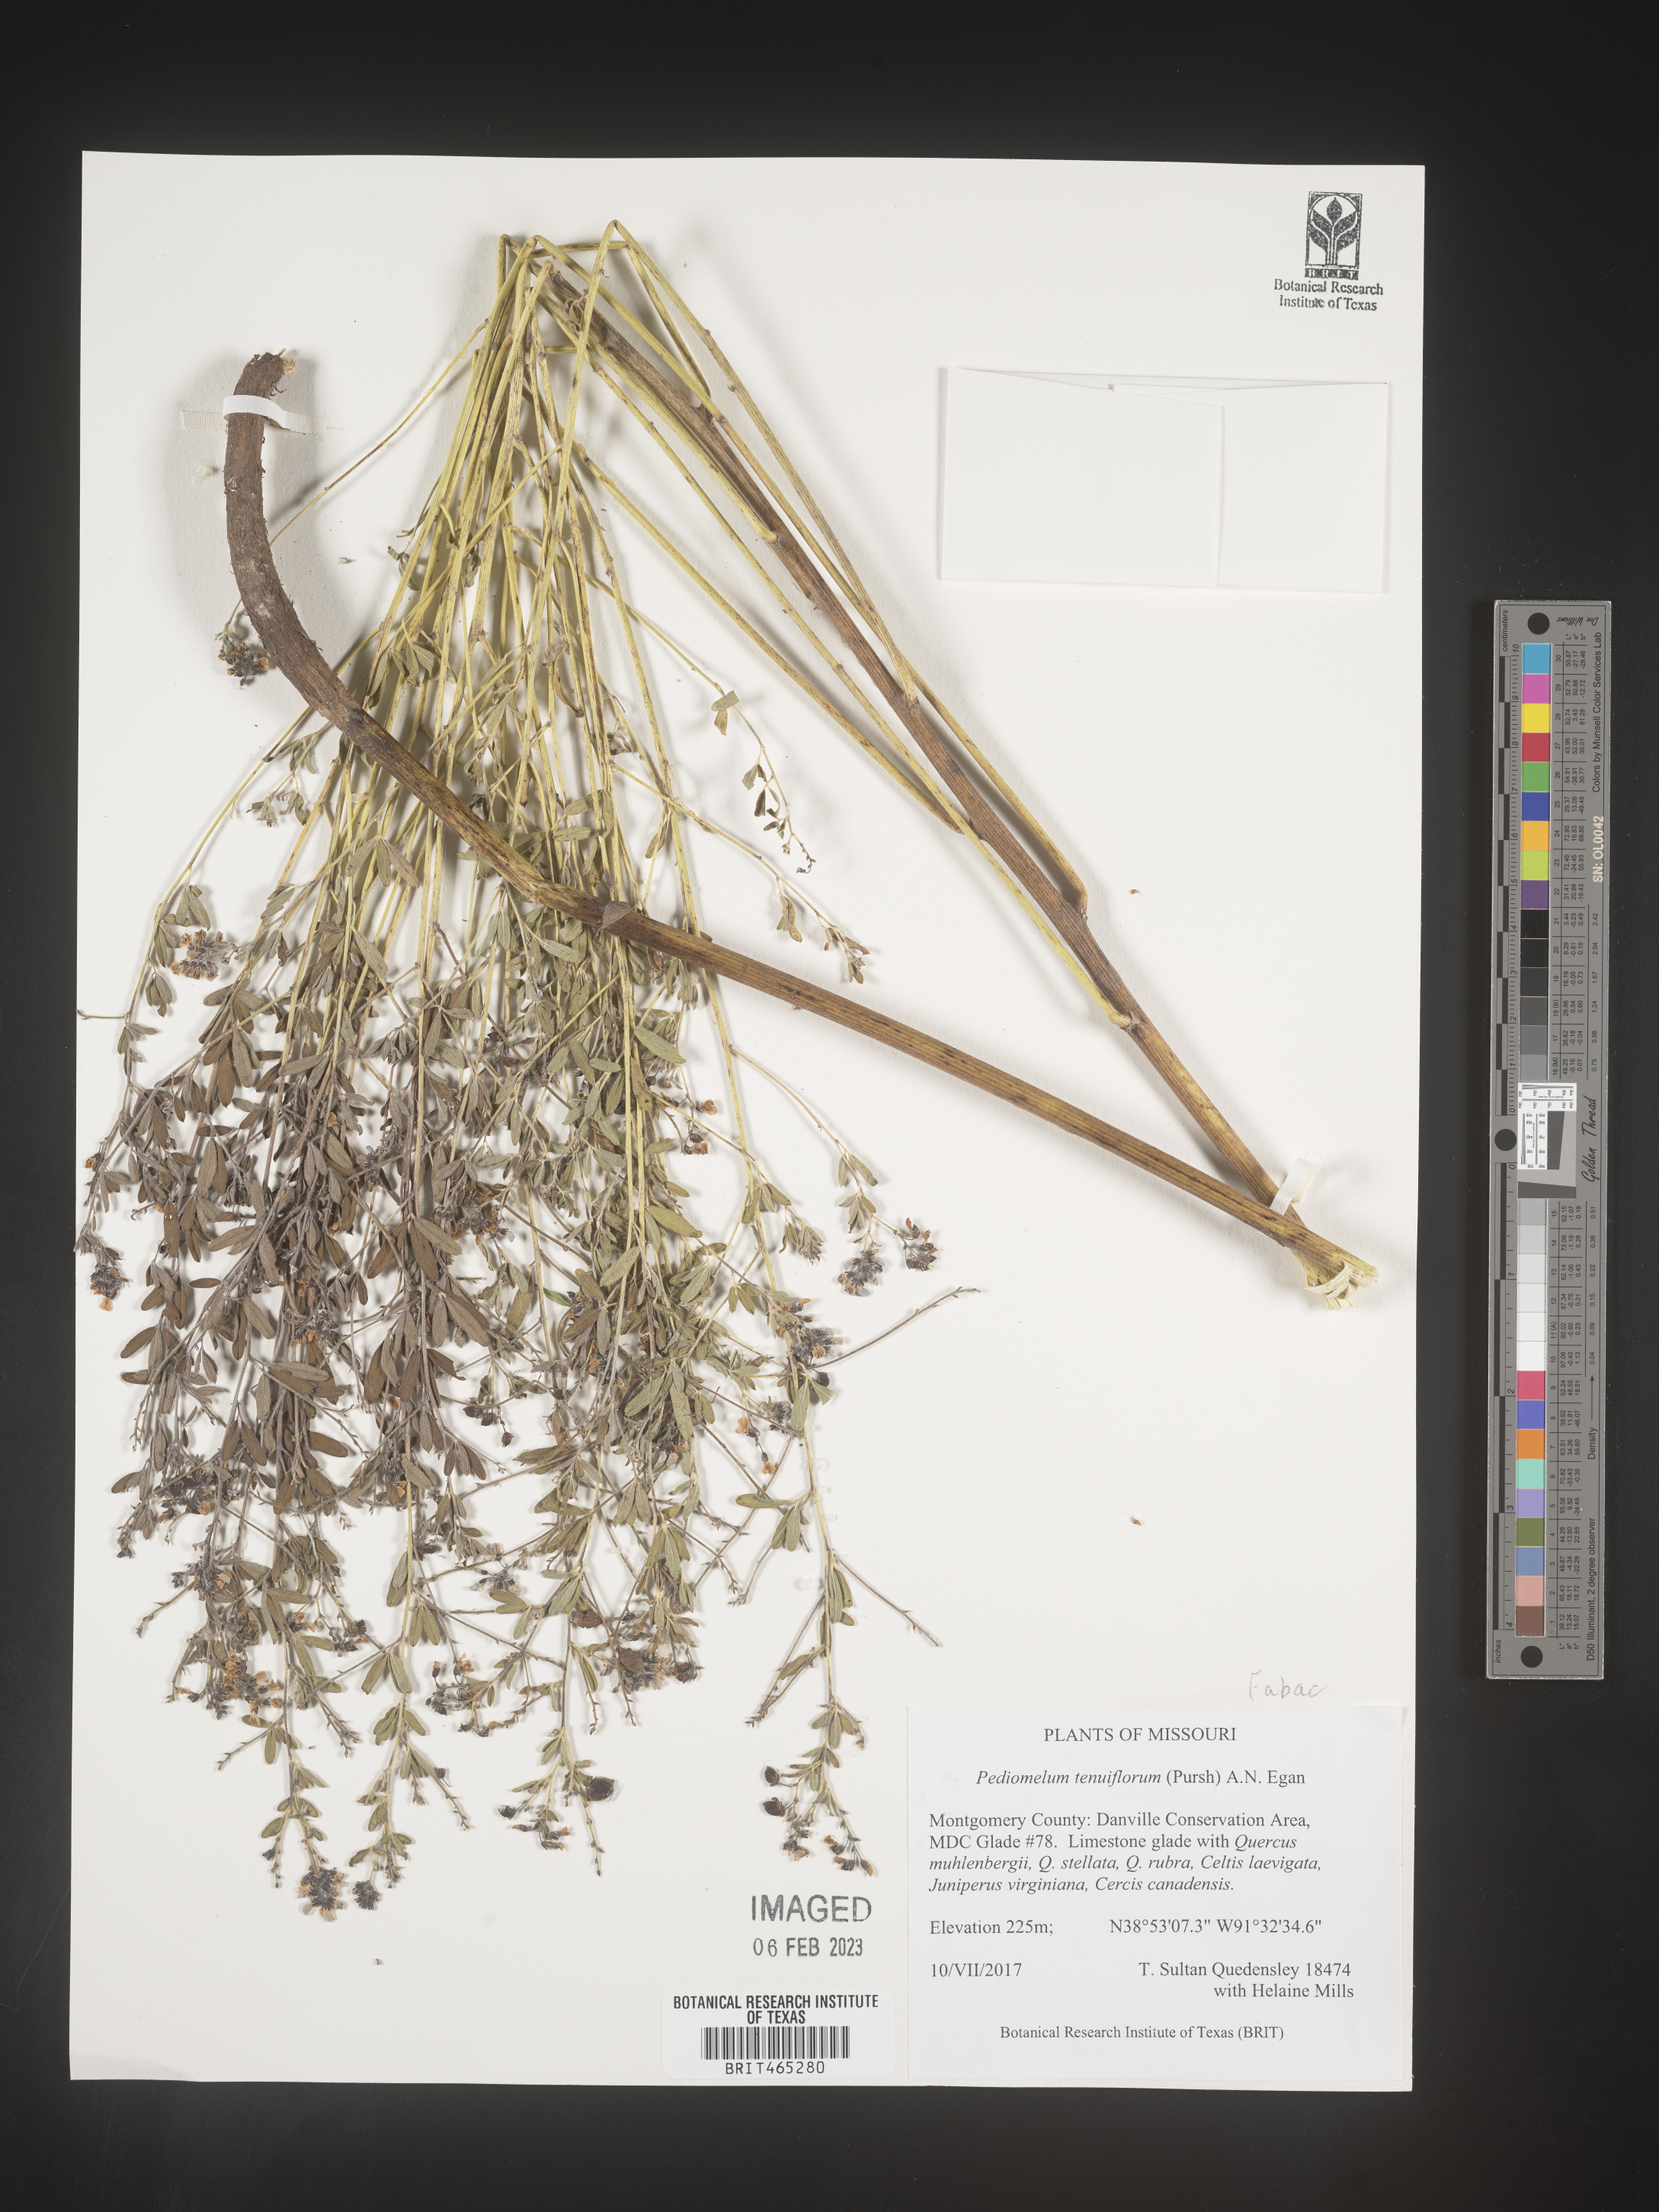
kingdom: Plantae
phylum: Tracheophyta
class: Magnoliopsida
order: Fabales
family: Fabaceae
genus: Pediomelum
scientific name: Pediomelum
